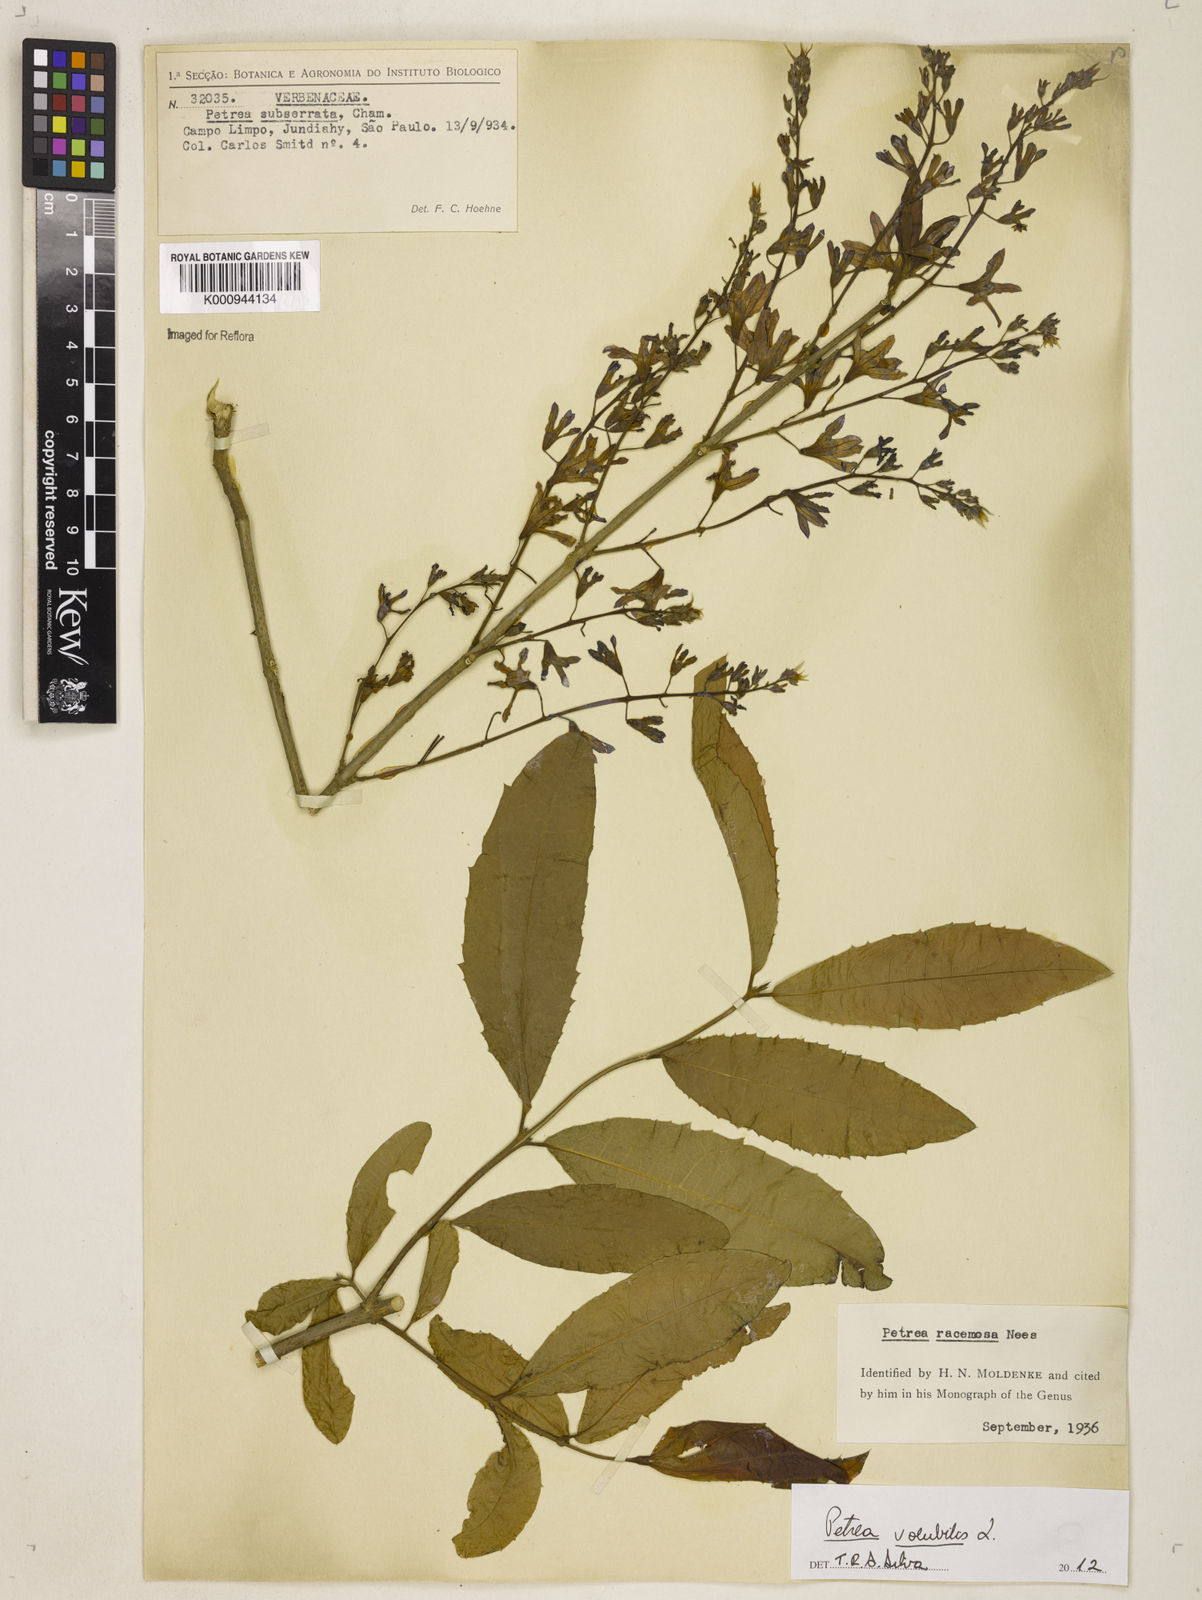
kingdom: Plantae
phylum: Tracheophyta
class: Magnoliopsida
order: Lamiales
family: Verbenaceae
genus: Petrea
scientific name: Petrea
